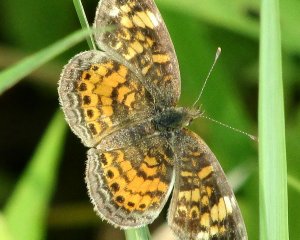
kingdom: Animalia
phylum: Arthropoda
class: Insecta
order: Lepidoptera
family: Nymphalidae
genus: Phyciodes
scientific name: Phyciodes tharos
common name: Pearl Crescent
